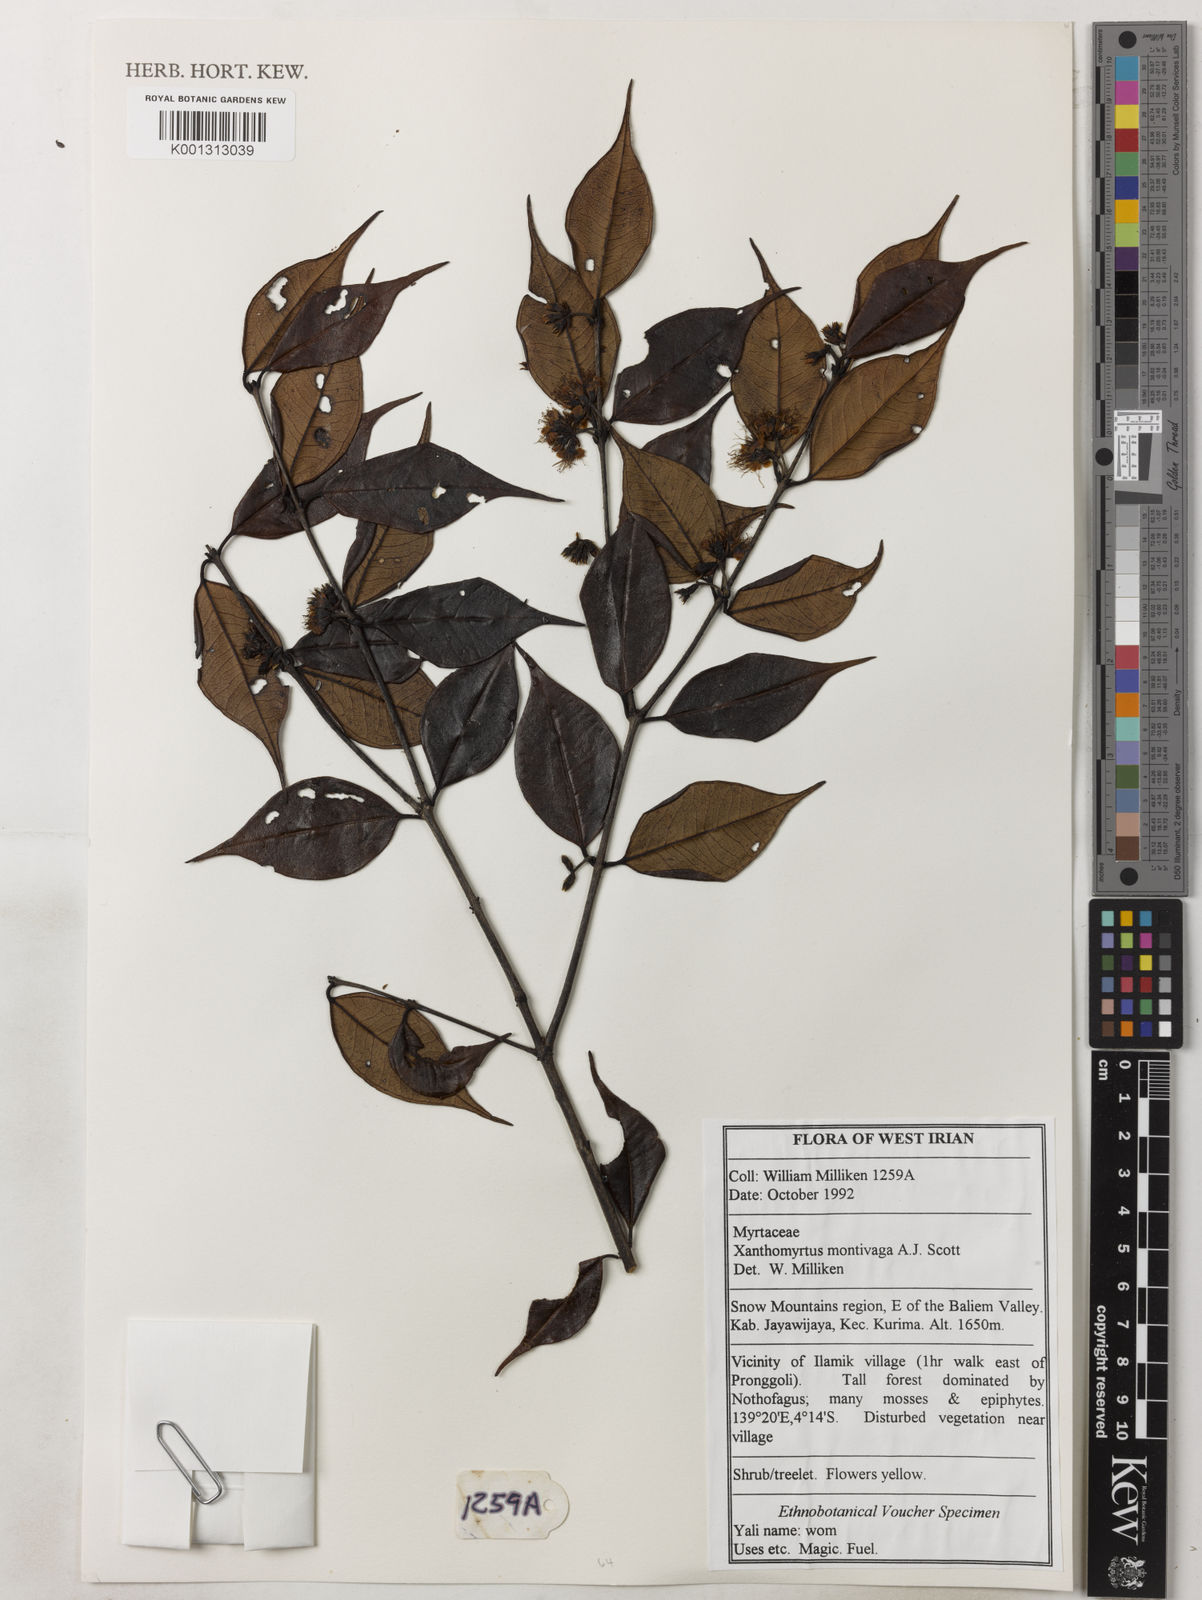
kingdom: Plantae
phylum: Tracheophyta
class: Magnoliopsida
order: Myrtales
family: Myrtaceae
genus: Xanthomyrtus
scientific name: Xanthomyrtus montivaga
